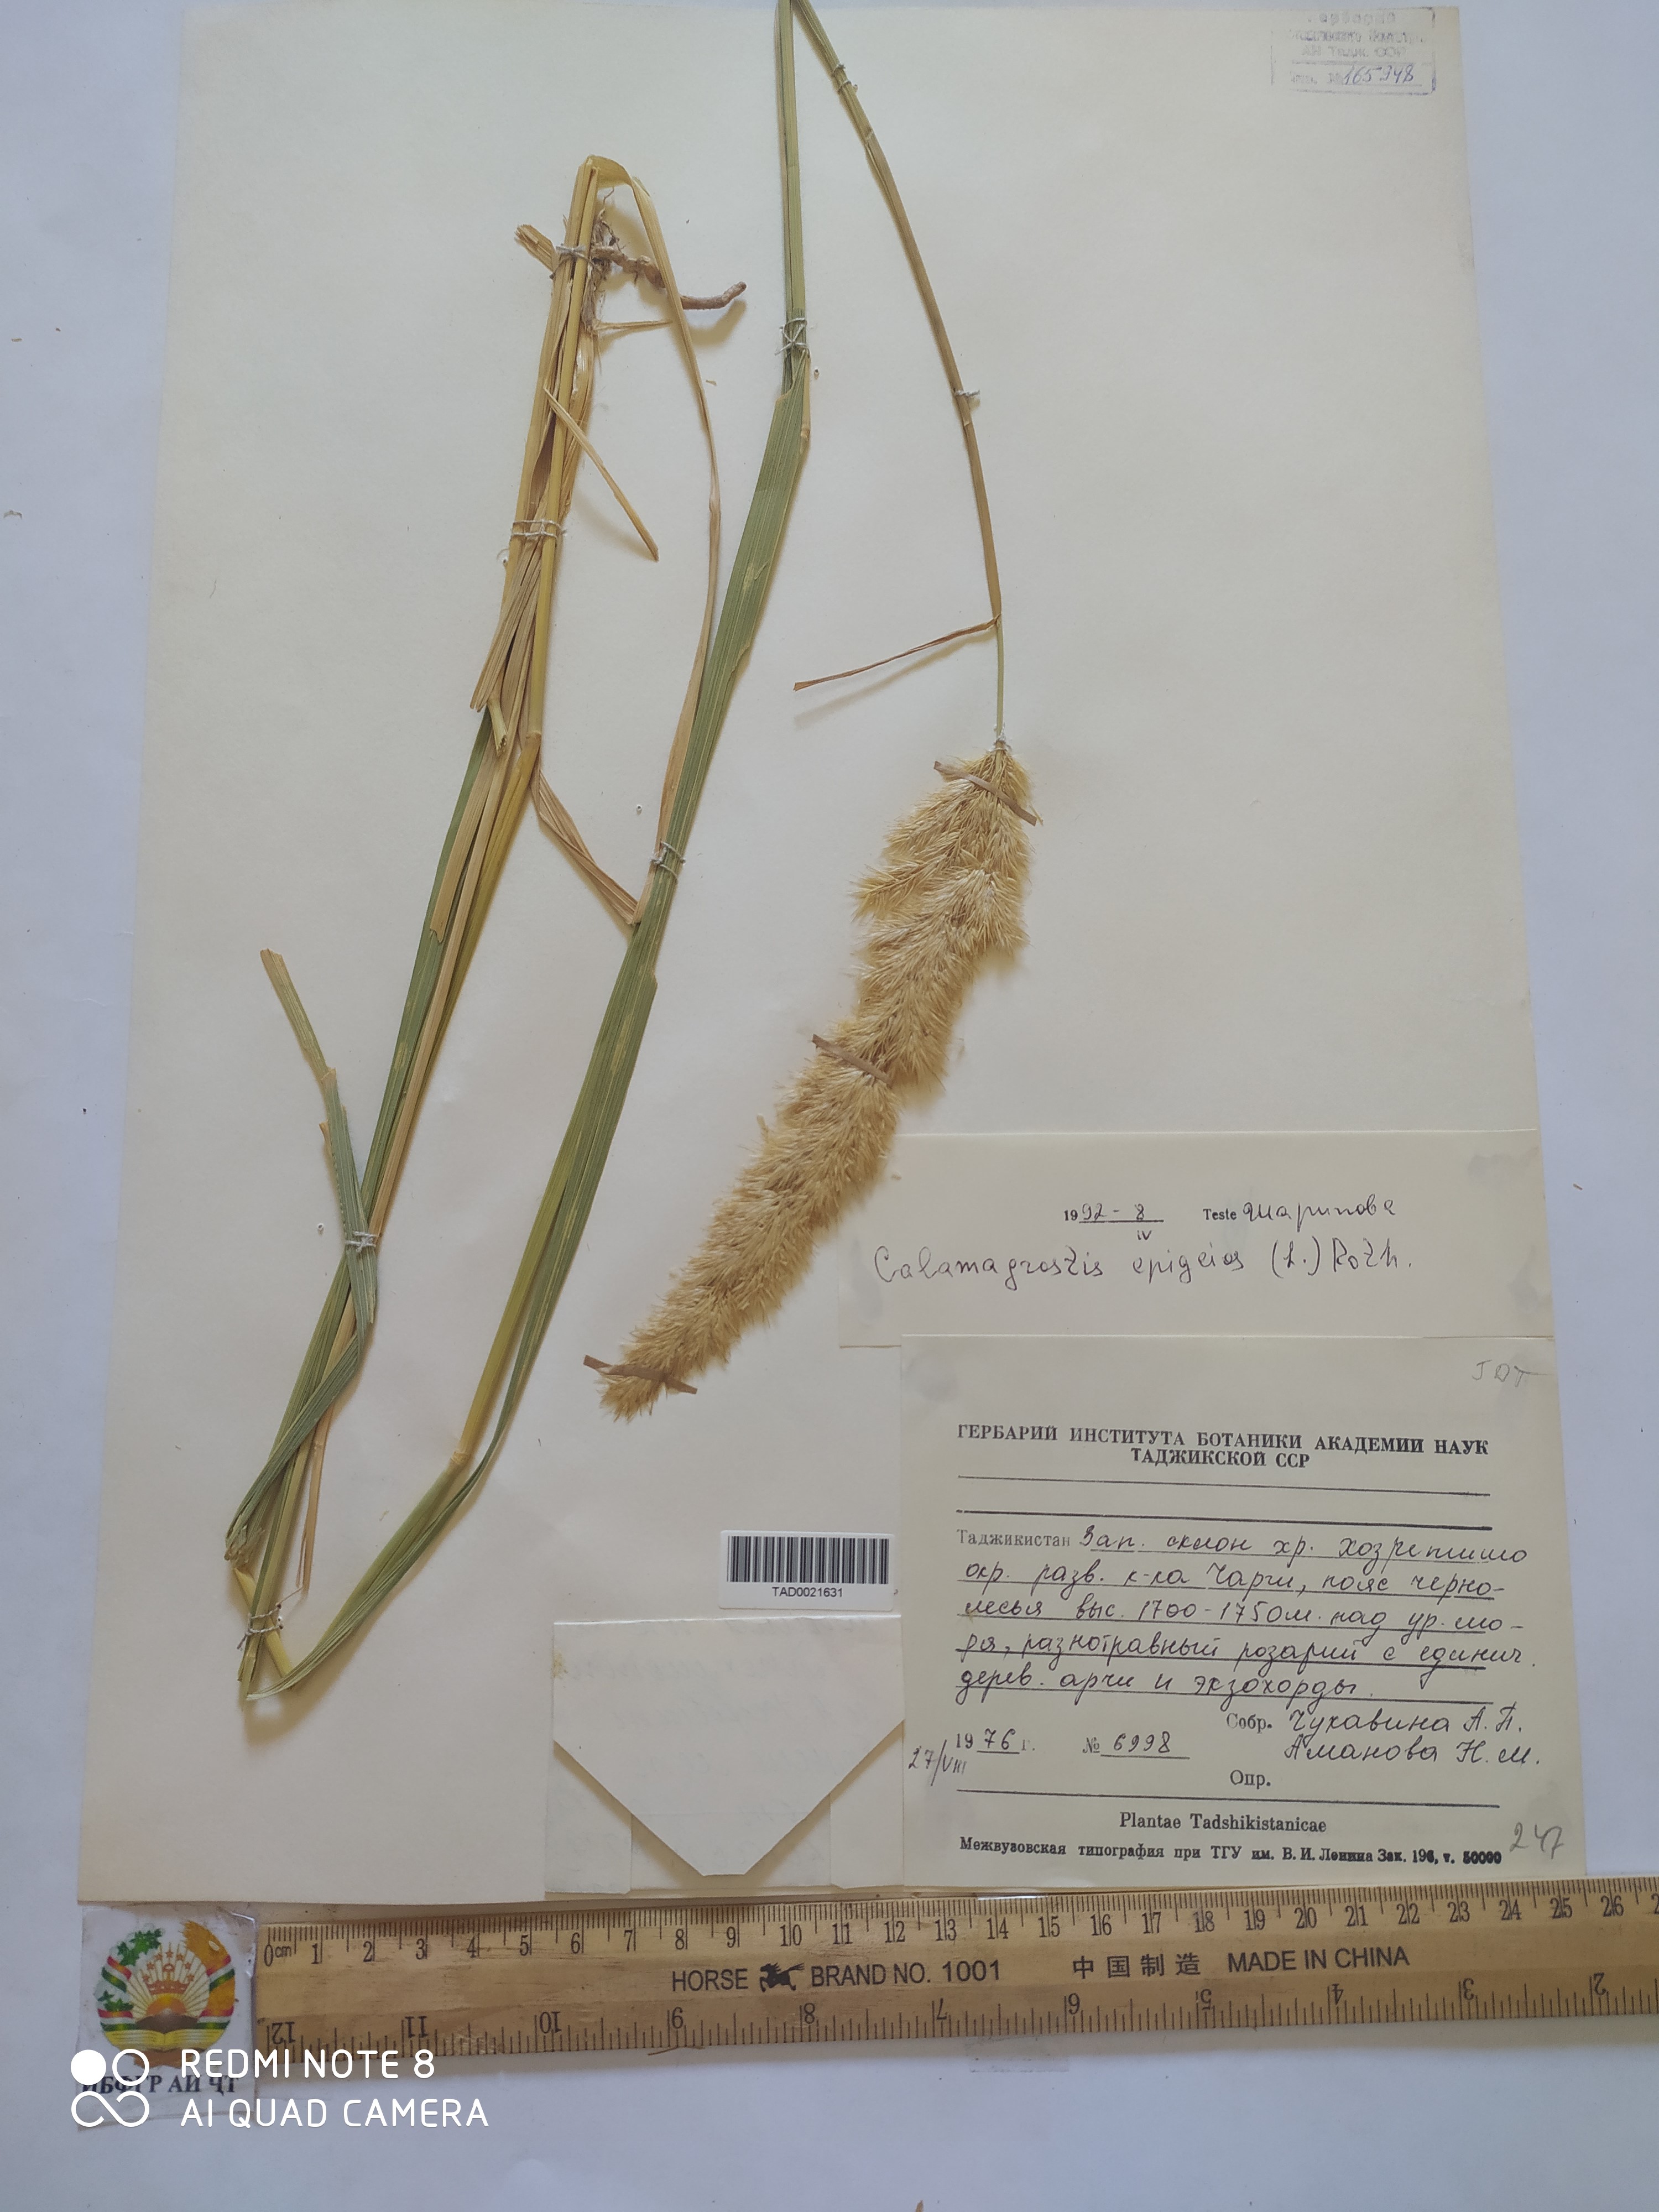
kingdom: Plantae
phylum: Tracheophyta
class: Liliopsida
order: Poales
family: Poaceae
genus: Calamagrostis
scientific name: Calamagrostis epigejos
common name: Wood small-reed
